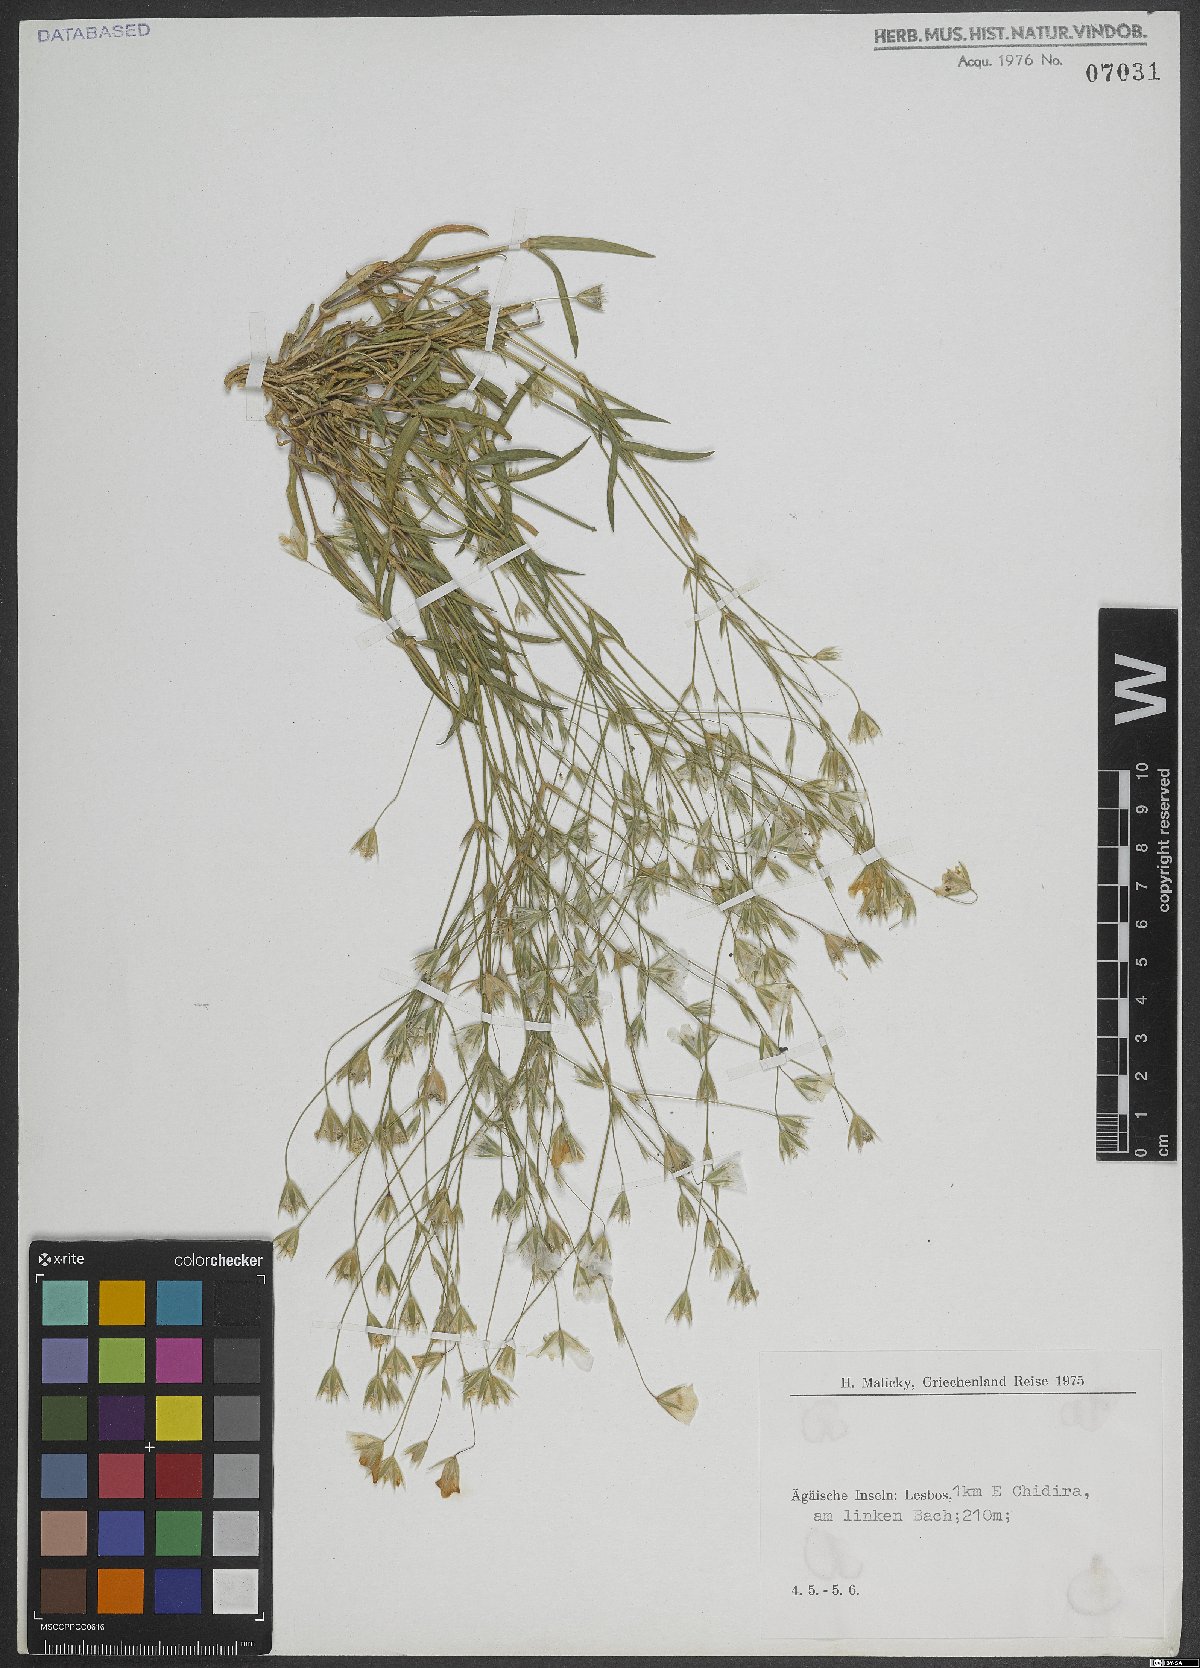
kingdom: Plantae
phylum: Tracheophyta
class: Magnoliopsida
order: Caryophyllales
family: Caryophyllaceae
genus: Cerastium
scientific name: Cerastium
